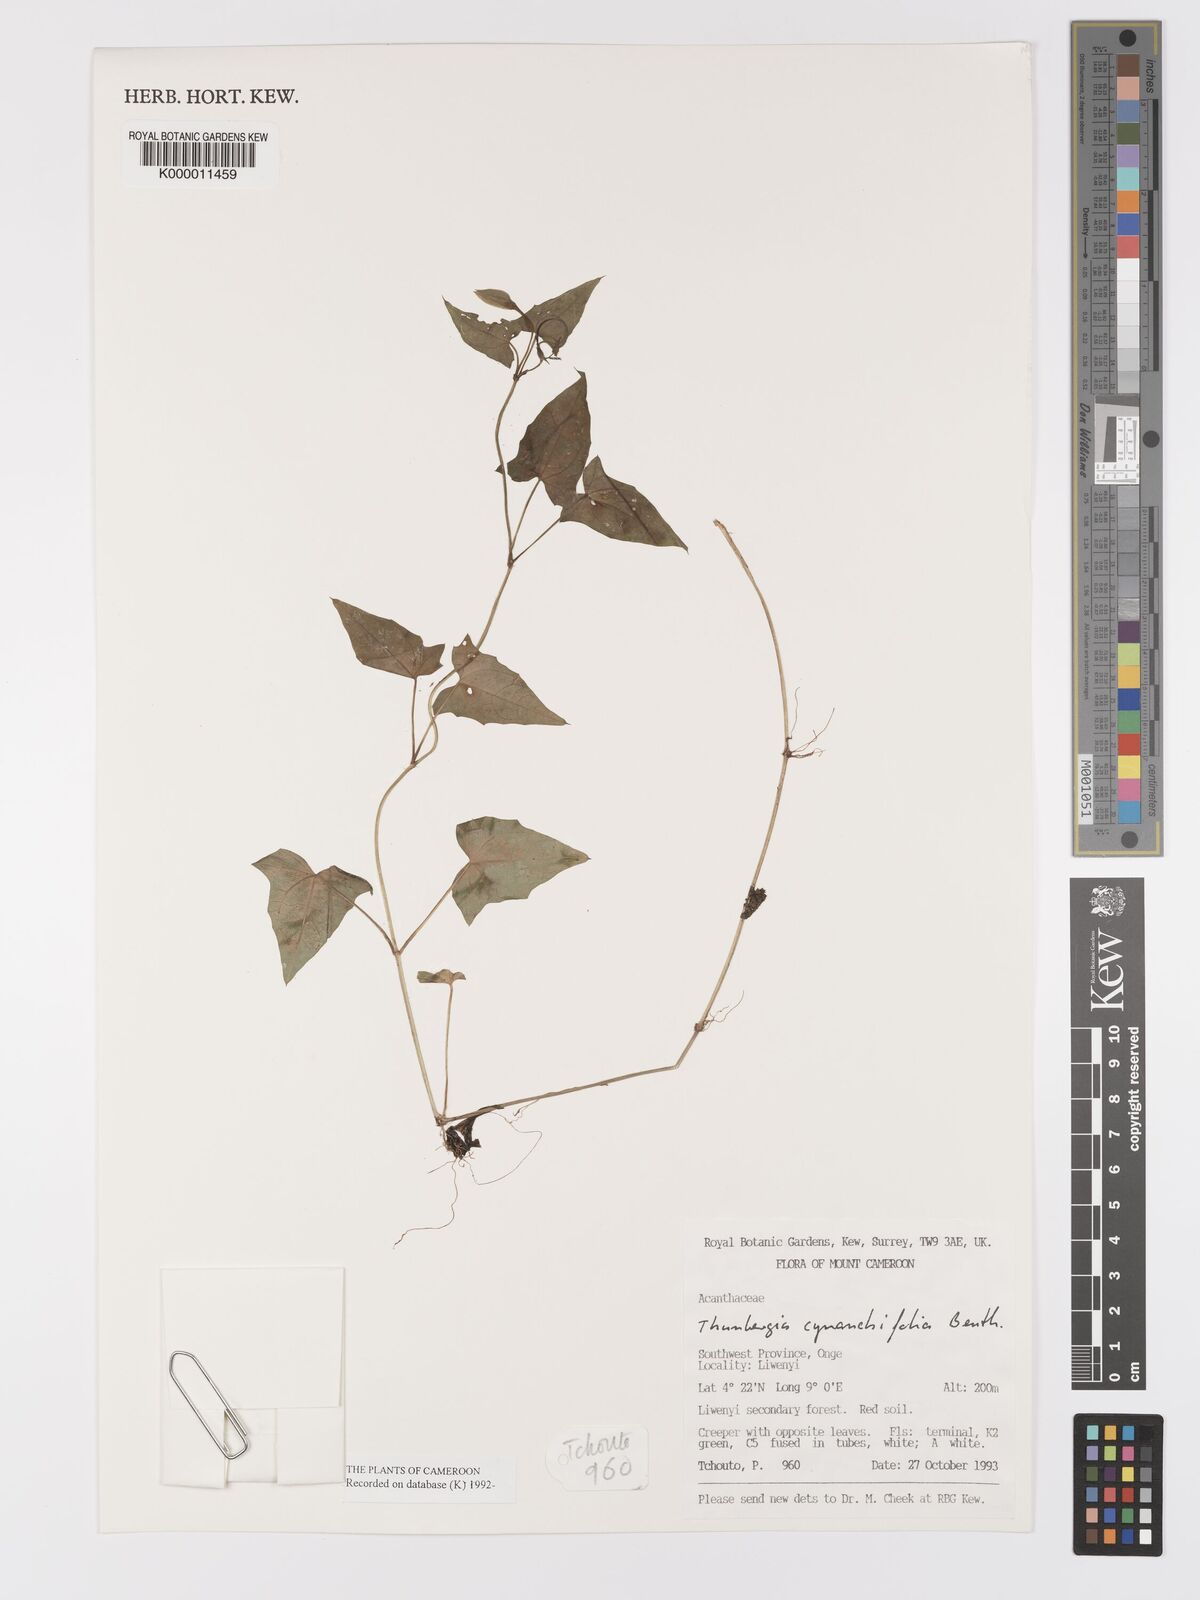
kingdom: Plantae
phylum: Tracheophyta
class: Magnoliopsida
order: Lamiales
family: Acanthaceae
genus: Thunbergia
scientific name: Thunbergia cynanchifolia
